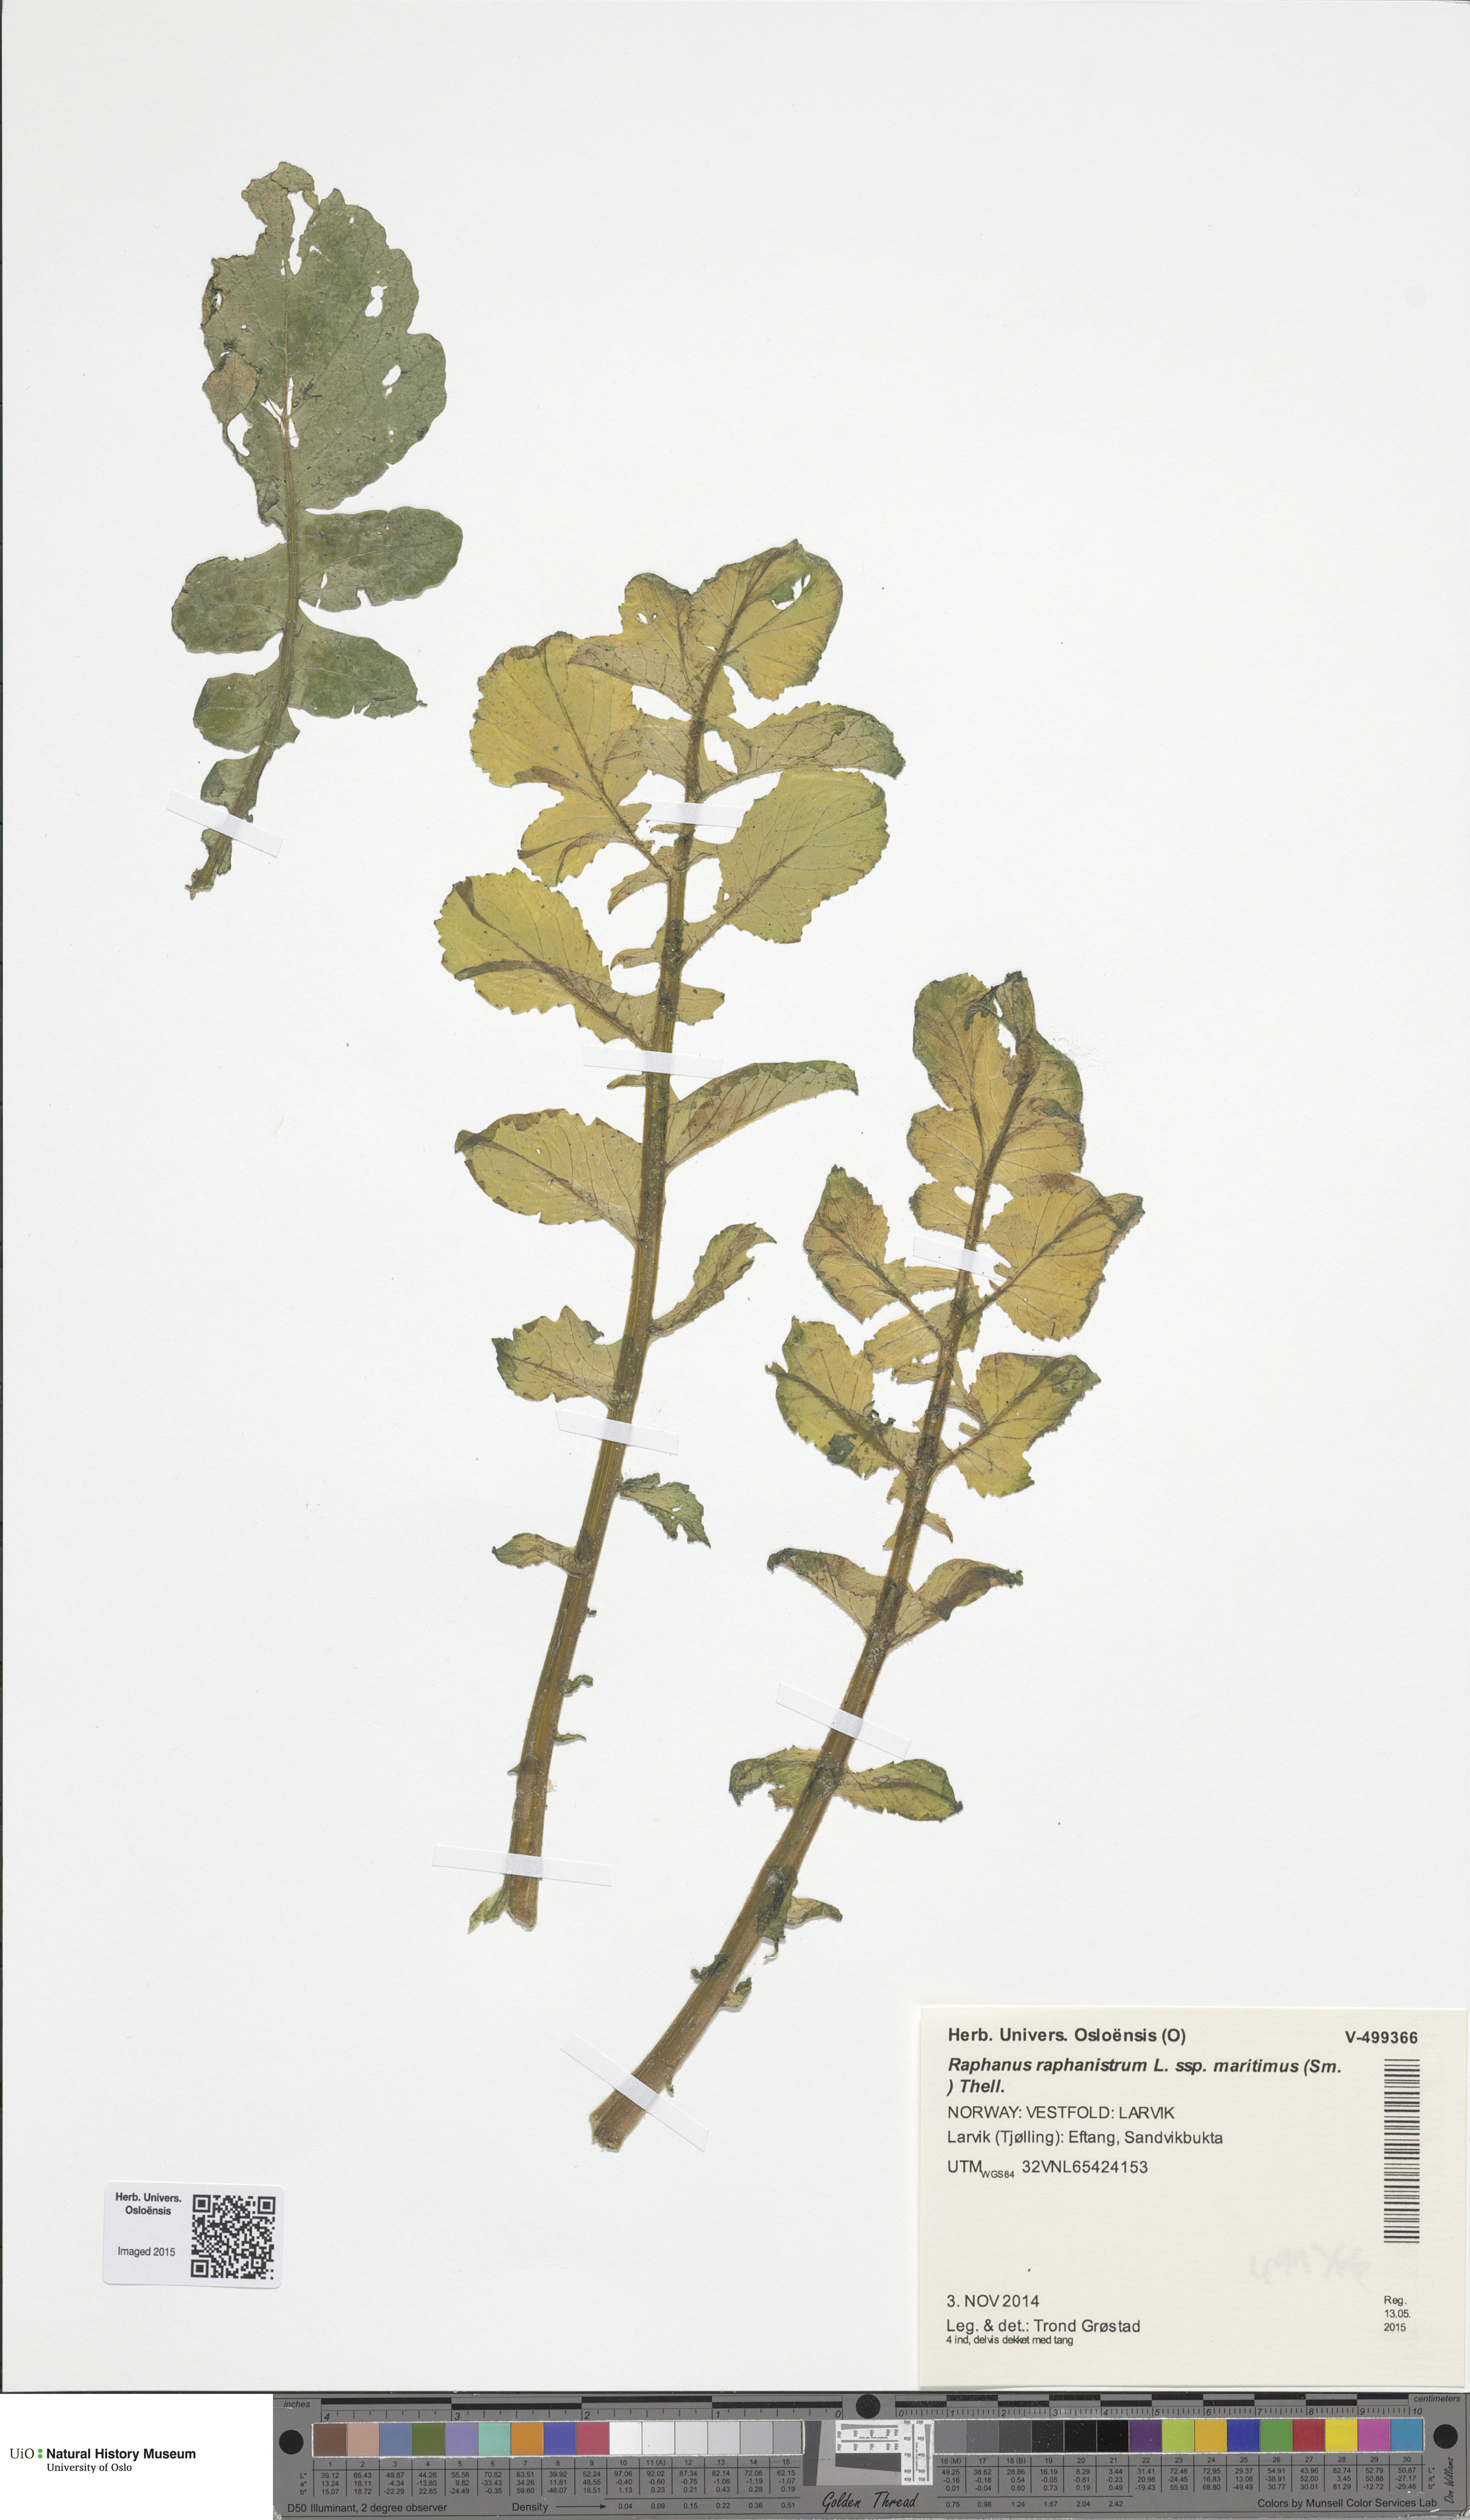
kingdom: Plantae
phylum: Tracheophyta
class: Magnoliopsida
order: Brassicales
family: Brassicaceae
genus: Raphanus
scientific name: Raphanus raphanistrum
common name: Wild radish
